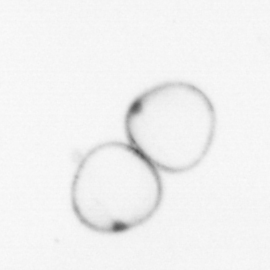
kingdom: Chromista
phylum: Myzozoa
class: Dinophyceae
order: Noctilucales
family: Noctilucaceae
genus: Noctiluca
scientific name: Noctiluca scintillans
